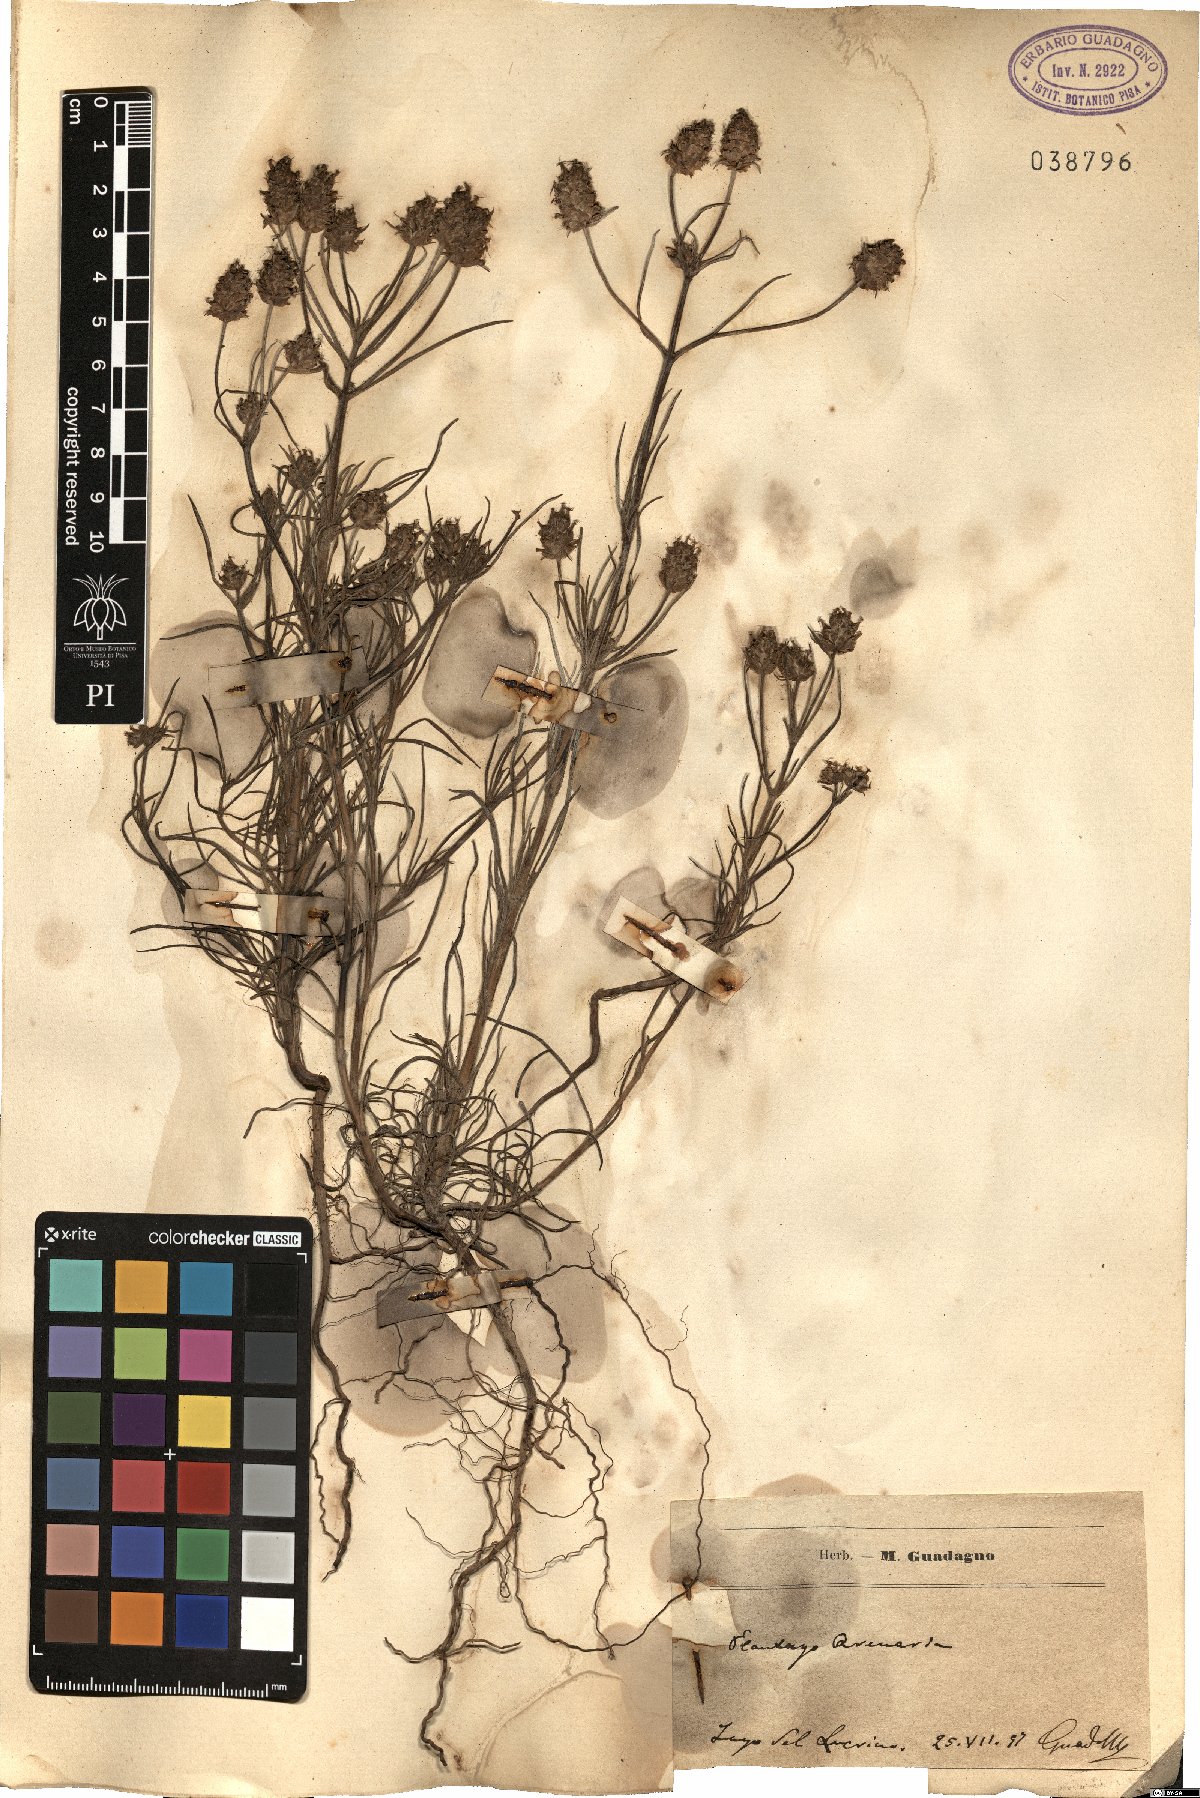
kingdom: Plantae
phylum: Tracheophyta
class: Magnoliopsida
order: Lamiales
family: Plantaginaceae
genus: Plantago
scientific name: Plantago arenaria
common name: Branched plantain
